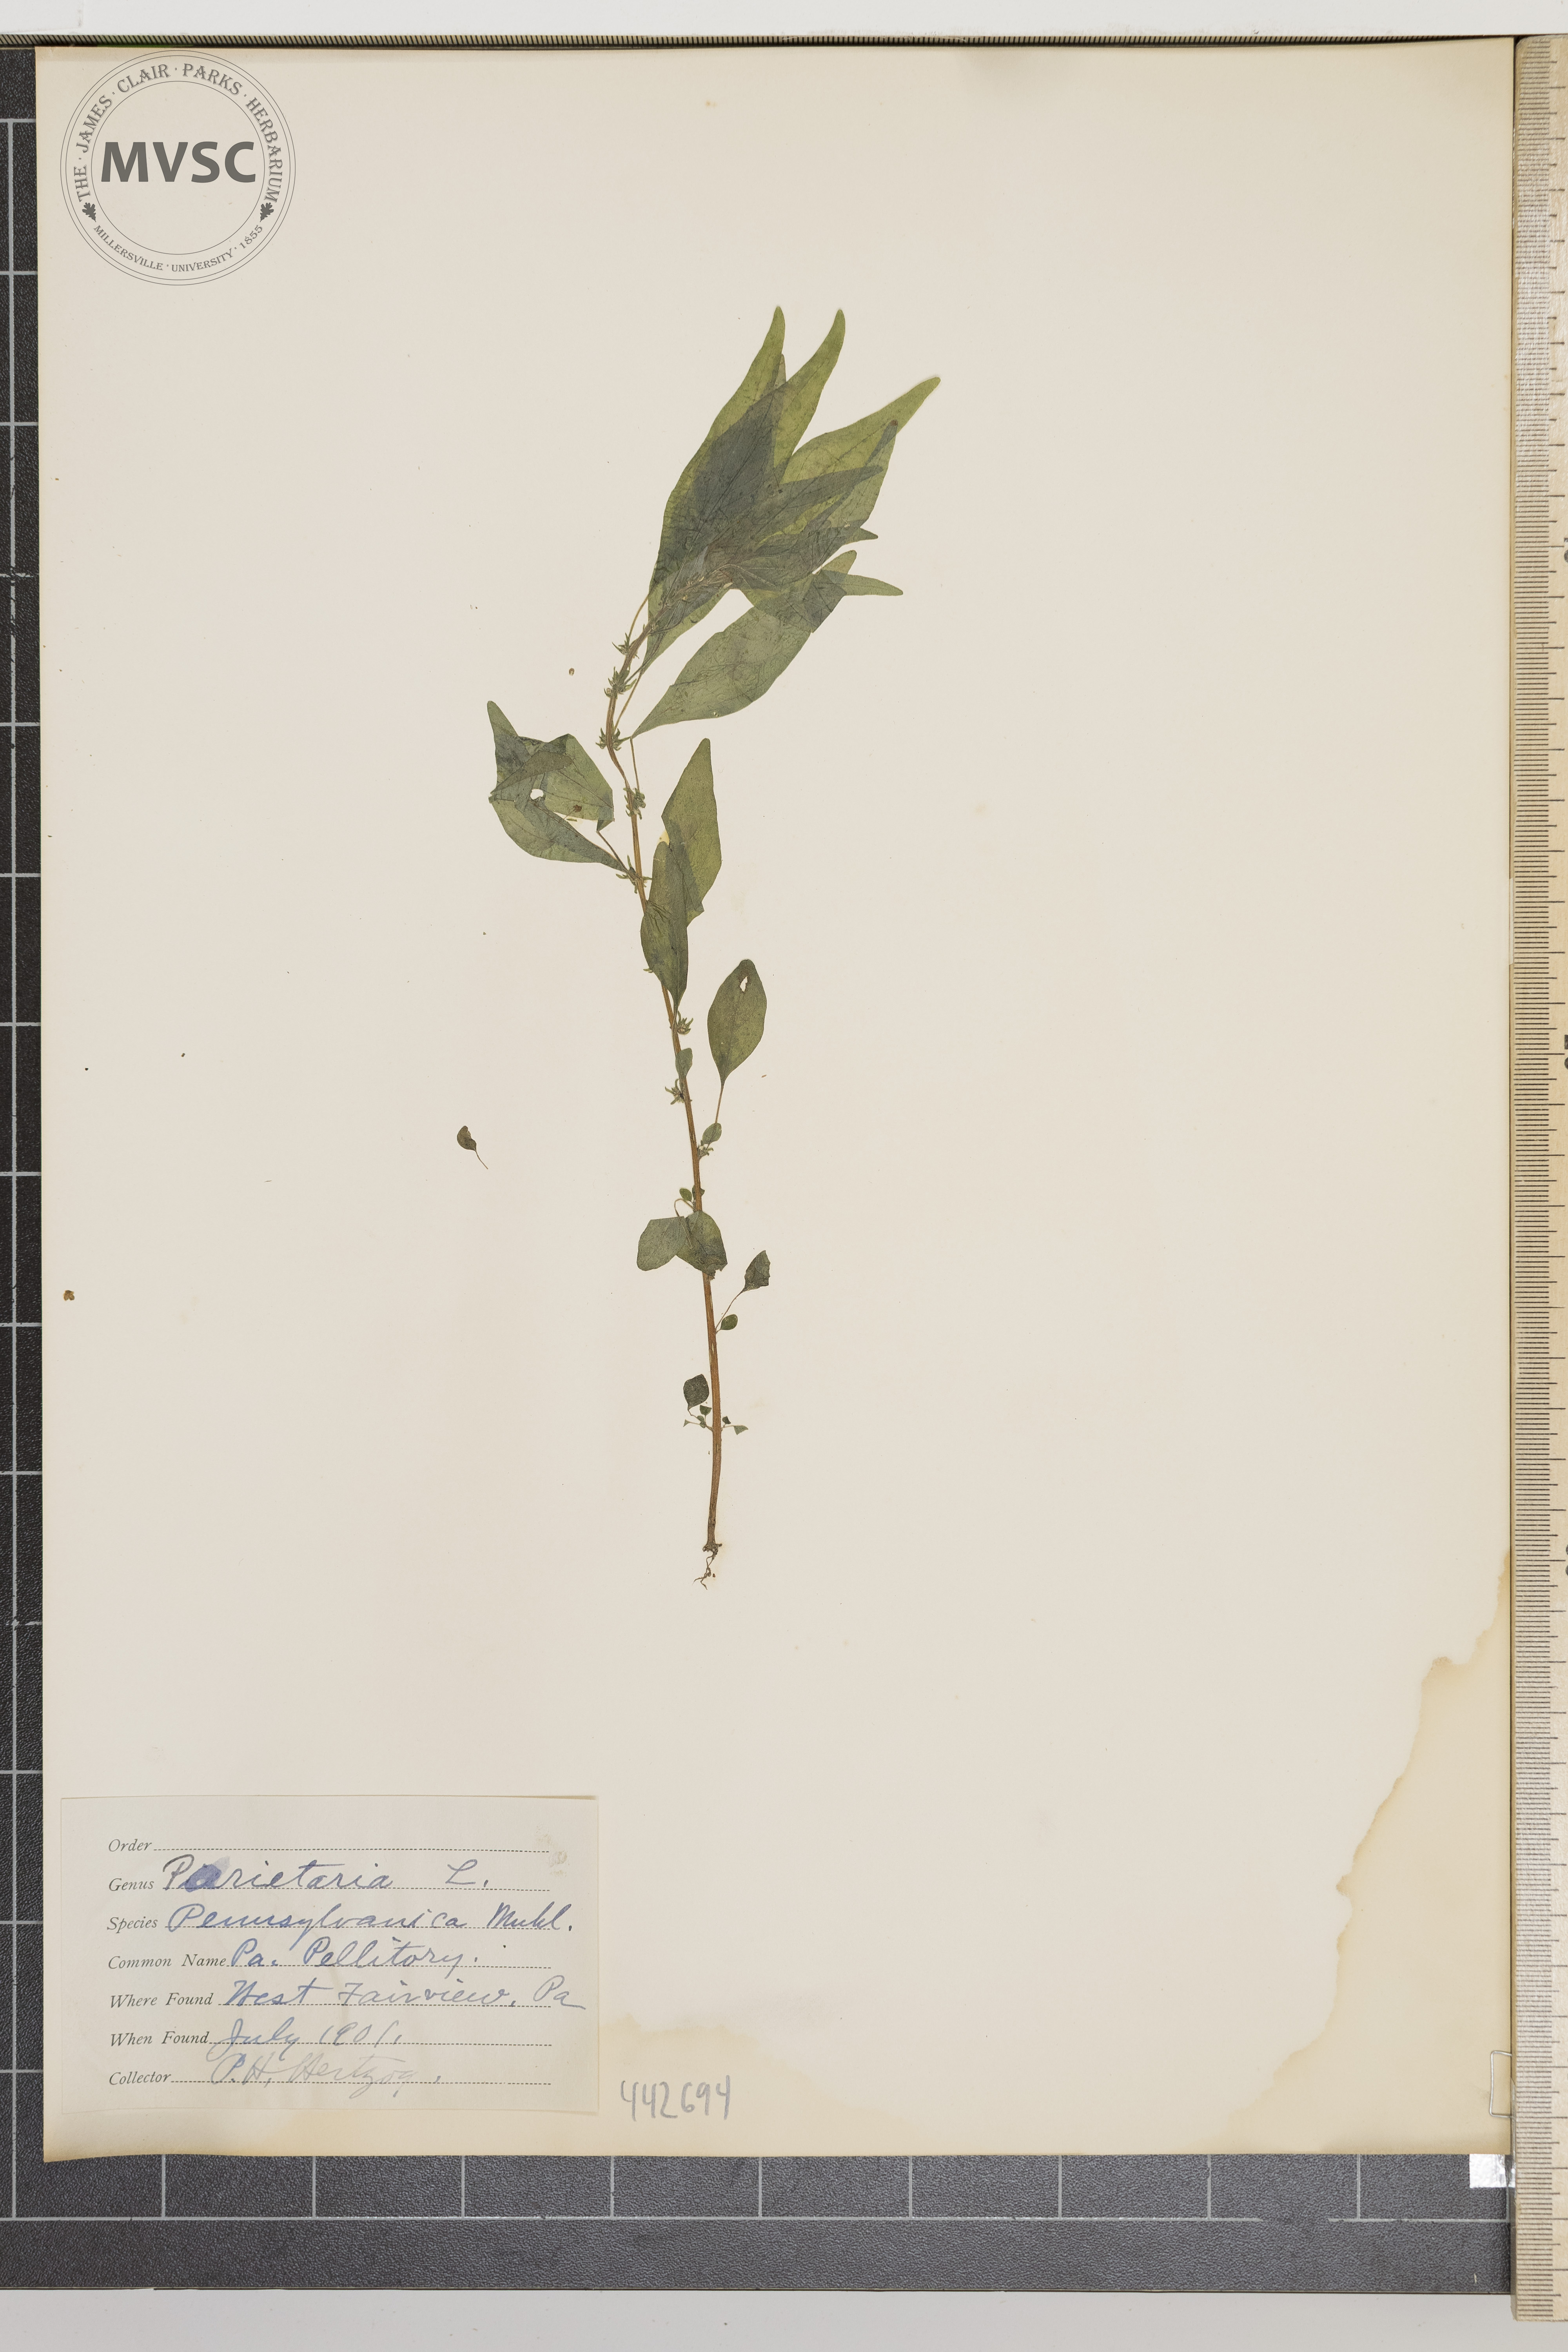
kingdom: Plantae
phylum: Tracheophyta
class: Magnoliopsida
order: Rosales
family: Urticaceae
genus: Parietaria
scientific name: Parietaria pensylvanica
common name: Pennsylvania Pellitory
